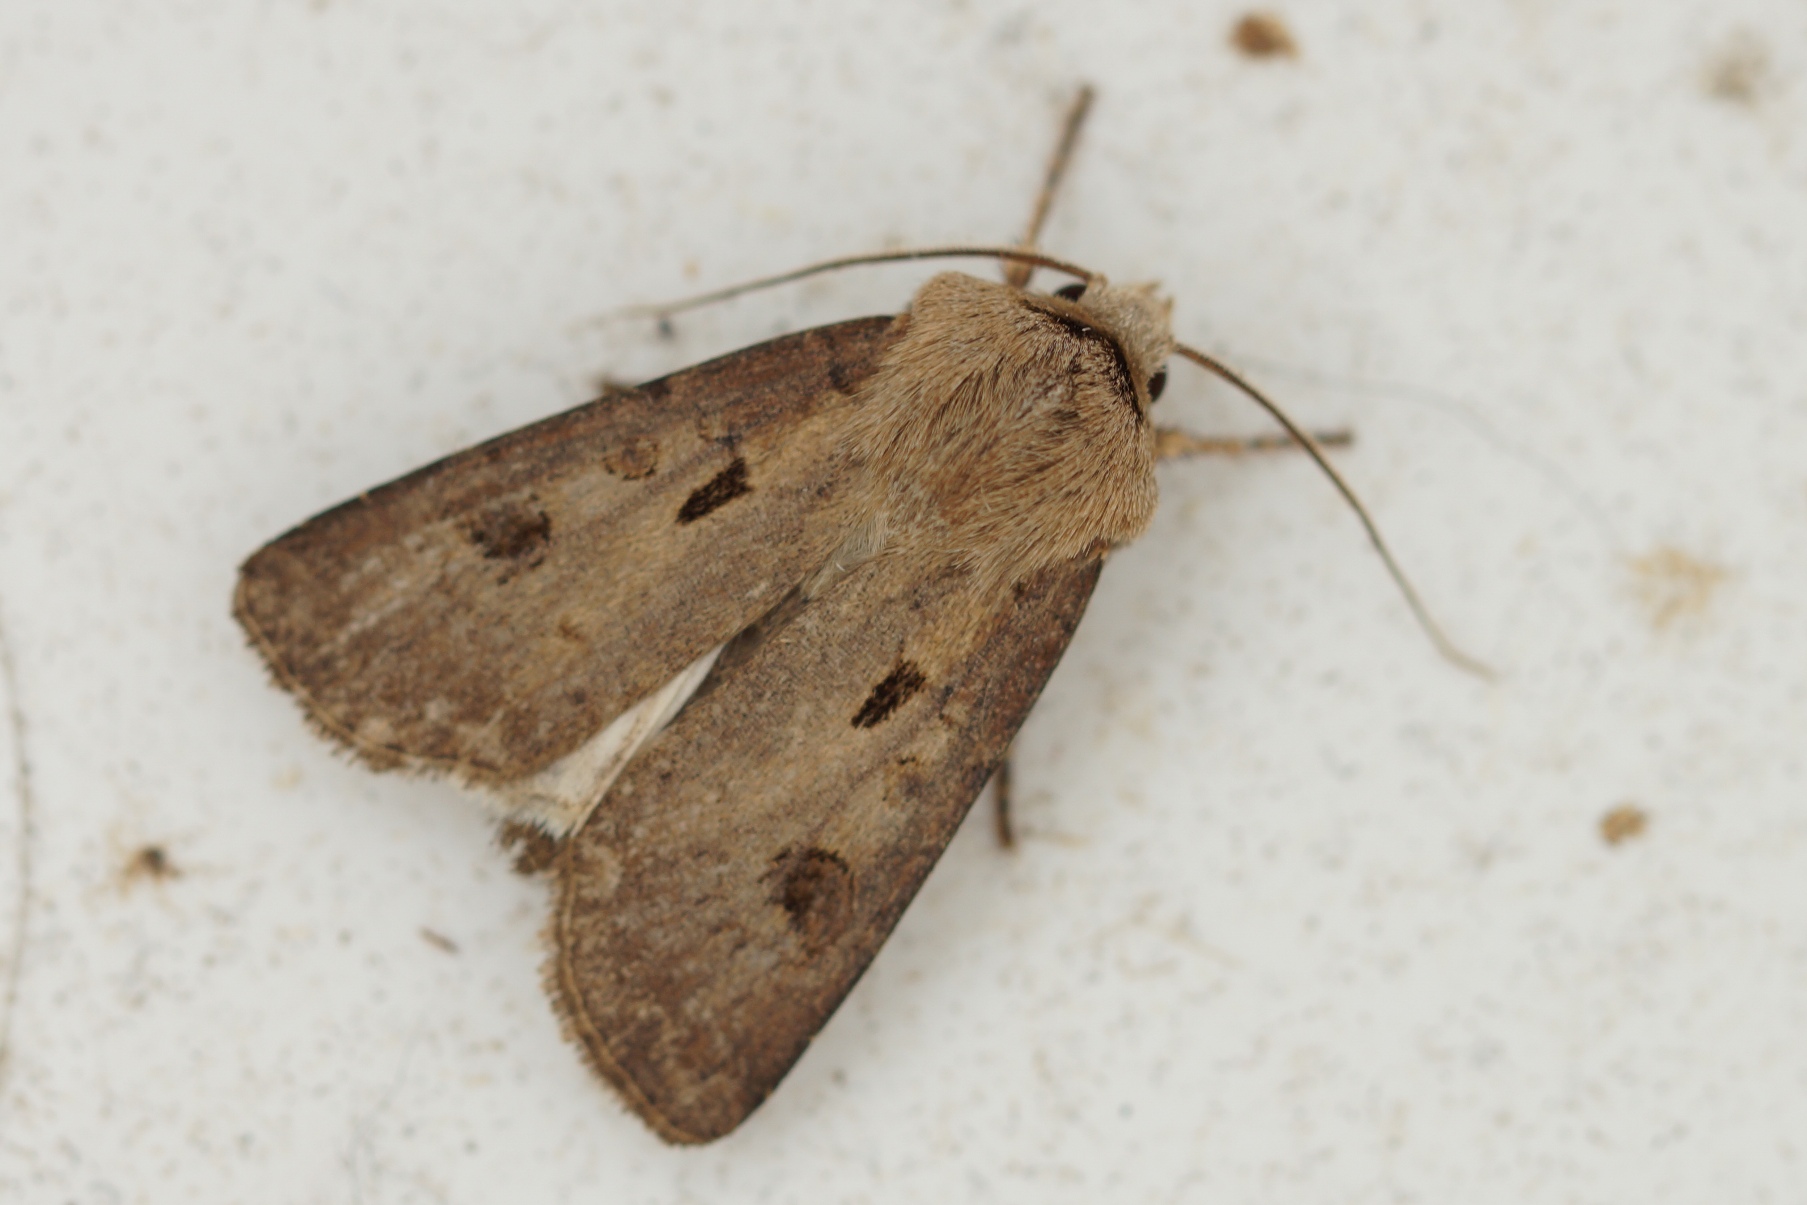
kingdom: Animalia
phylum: Arthropoda
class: Insecta
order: Lepidoptera
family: Noctuidae
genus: Agrotis
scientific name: Agrotis exclamationis
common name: Udråbstegnsugle
